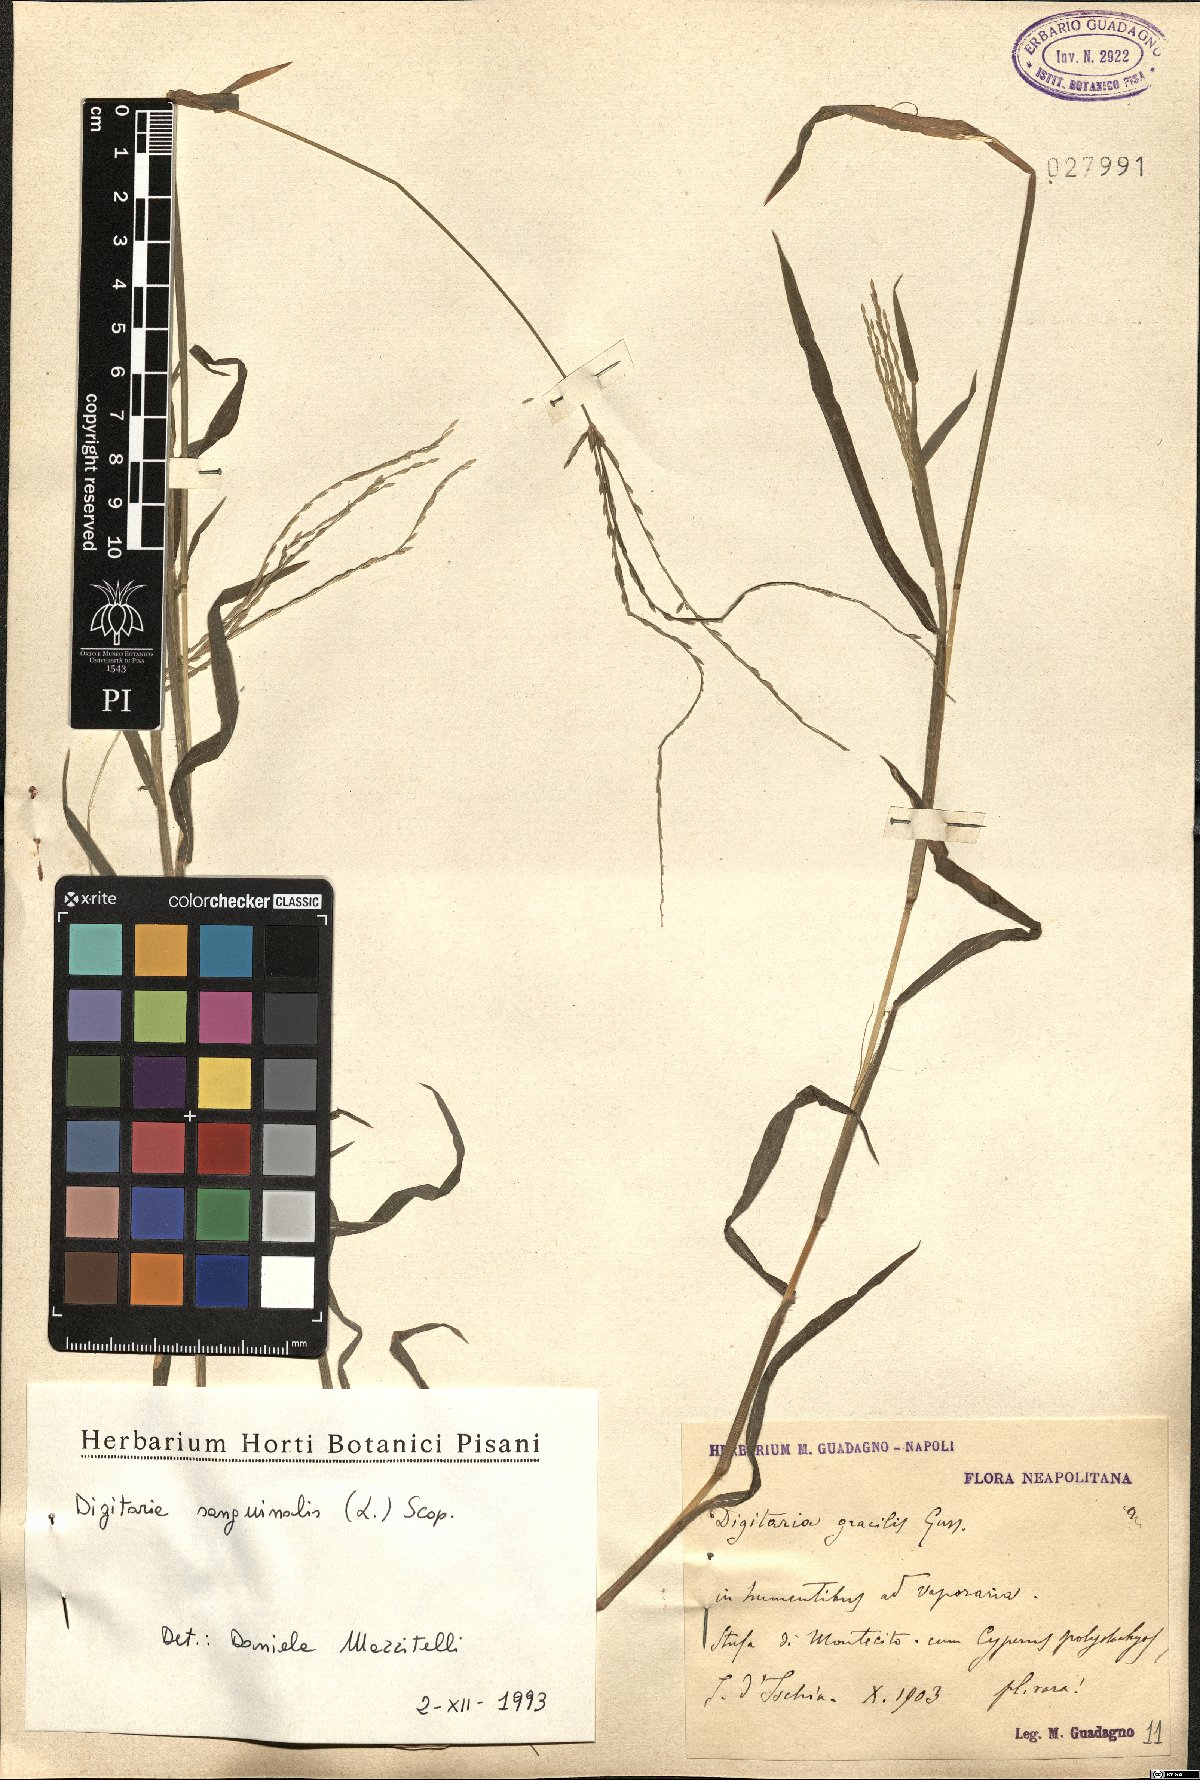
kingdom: Plantae
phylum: Tracheophyta
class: Liliopsida
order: Poales
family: Poaceae
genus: Digitaria
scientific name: Digitaria sanguinalis
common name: Hairy crabgrass
